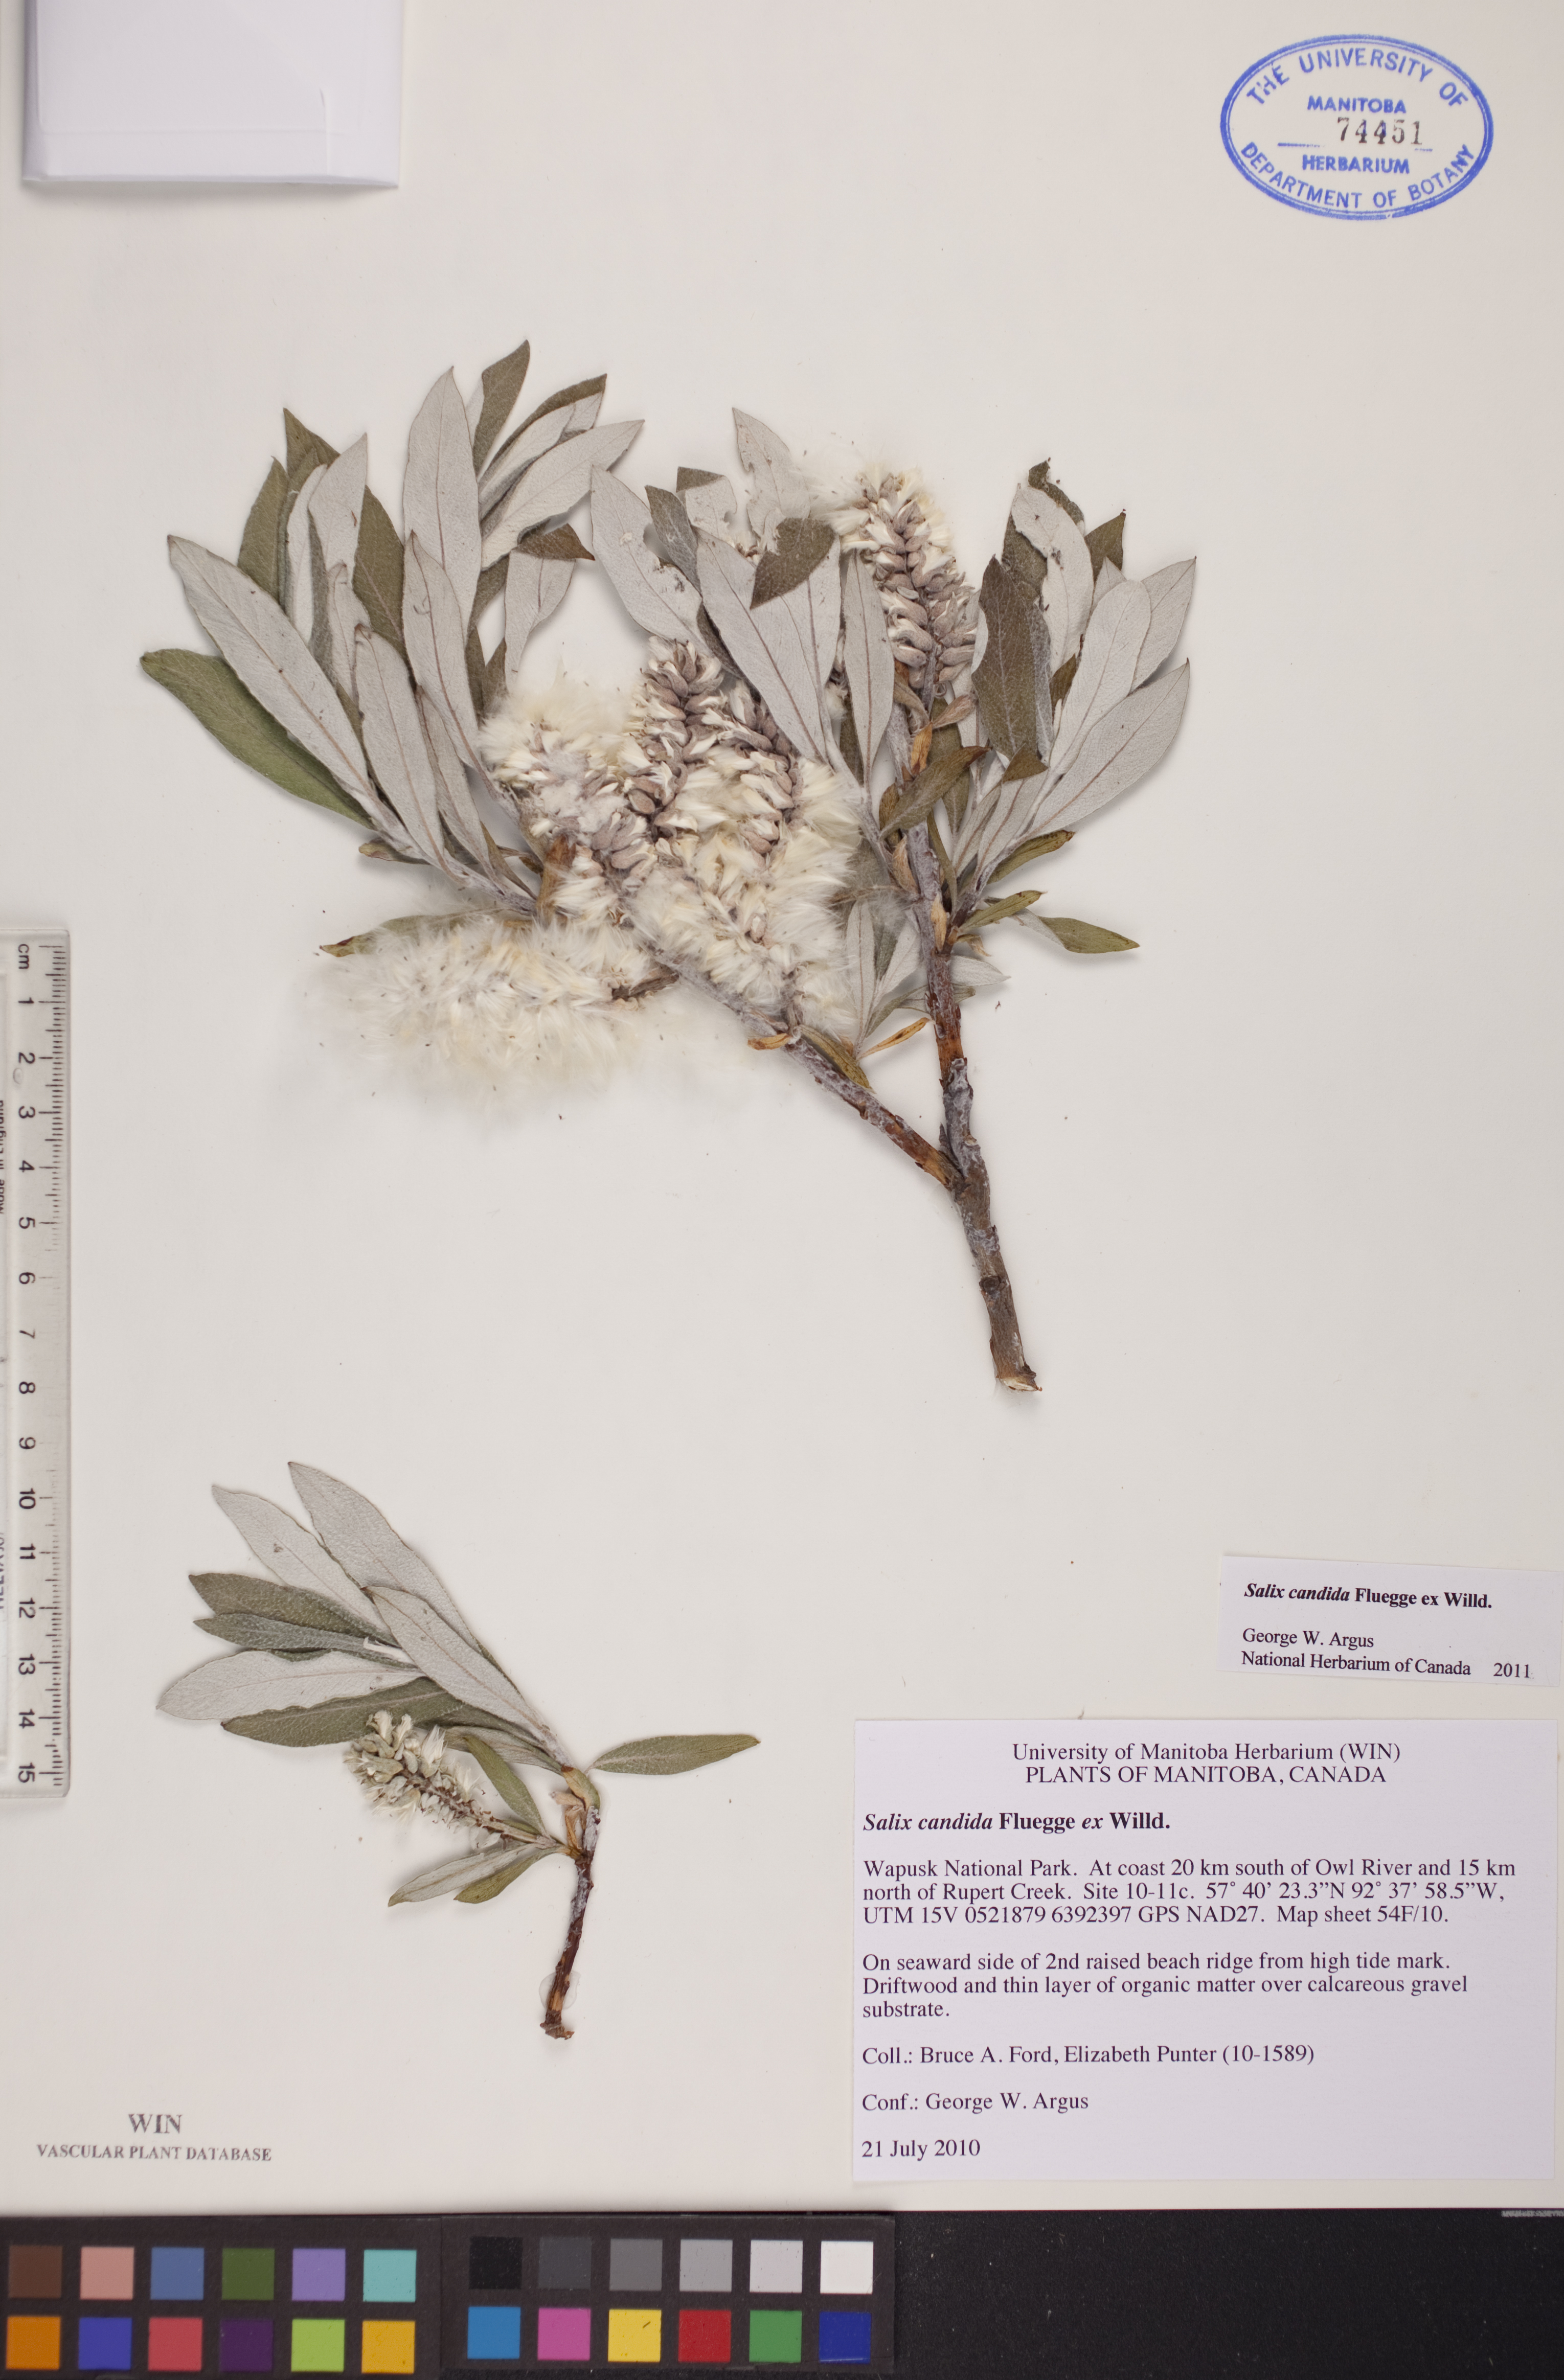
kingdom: Plantae
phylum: Tracheophyta
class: Magnoliopsida
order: Malpighiales
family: Salicaceae
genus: Salix
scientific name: Salix candida
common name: Hoary willow
